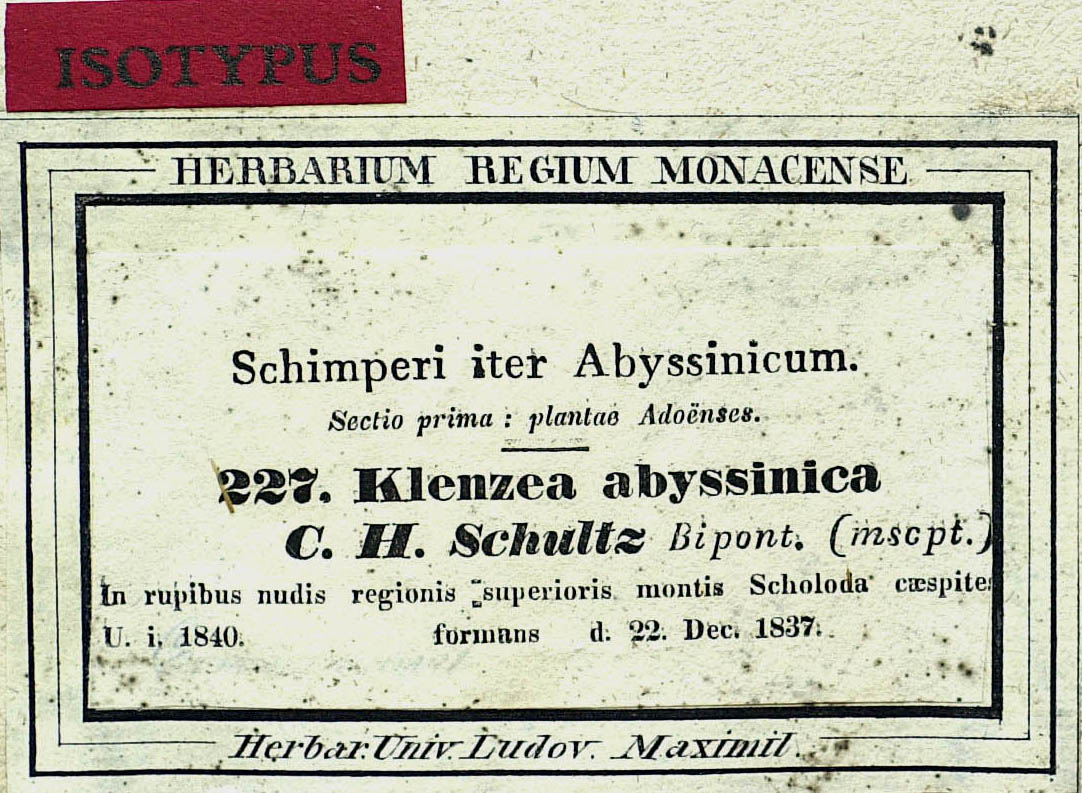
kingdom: Plantae
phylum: Tracheophyta
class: Magnoliopsida
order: Asterales
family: Asteraceae
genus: Arrowsmithia
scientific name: Arrowsmithia abyssinica
